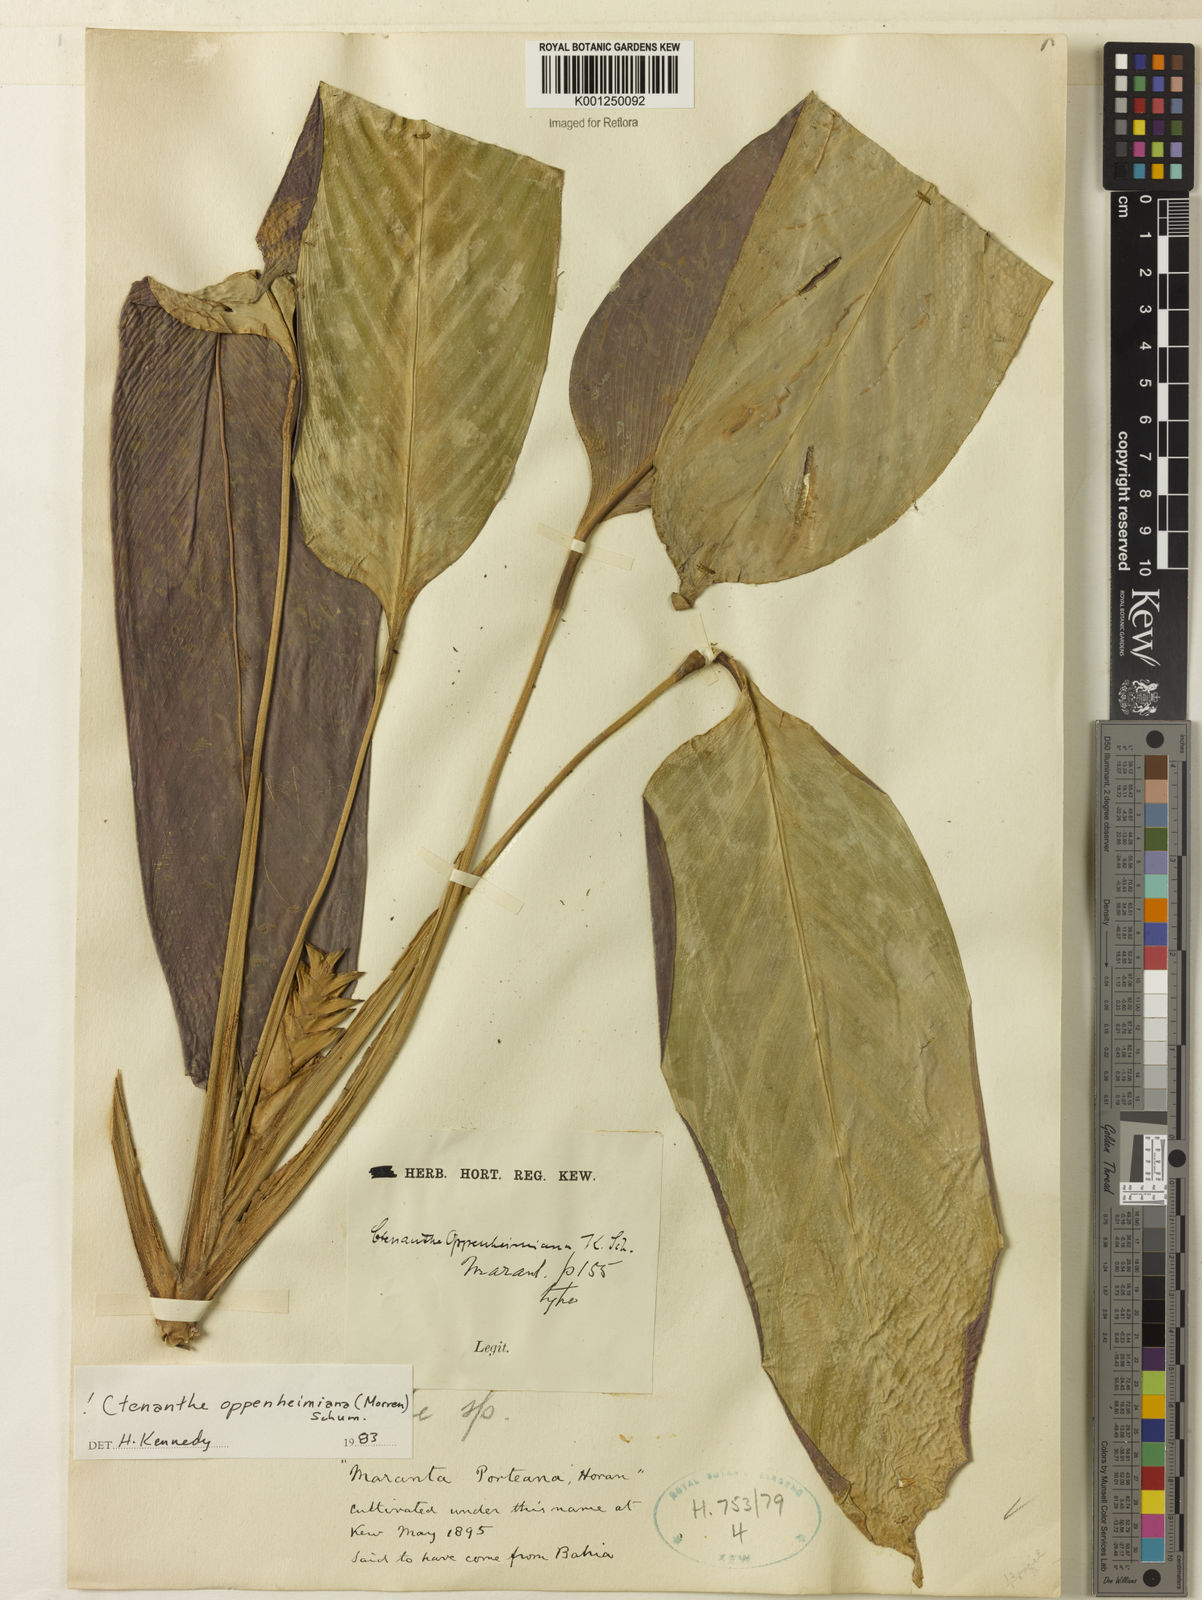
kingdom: Plantae
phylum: Tracheophyta
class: Liliopsida
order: Zingiberales
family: Marantaceae
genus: Ctenanthe
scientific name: Ctenanthe oppenheimiana
